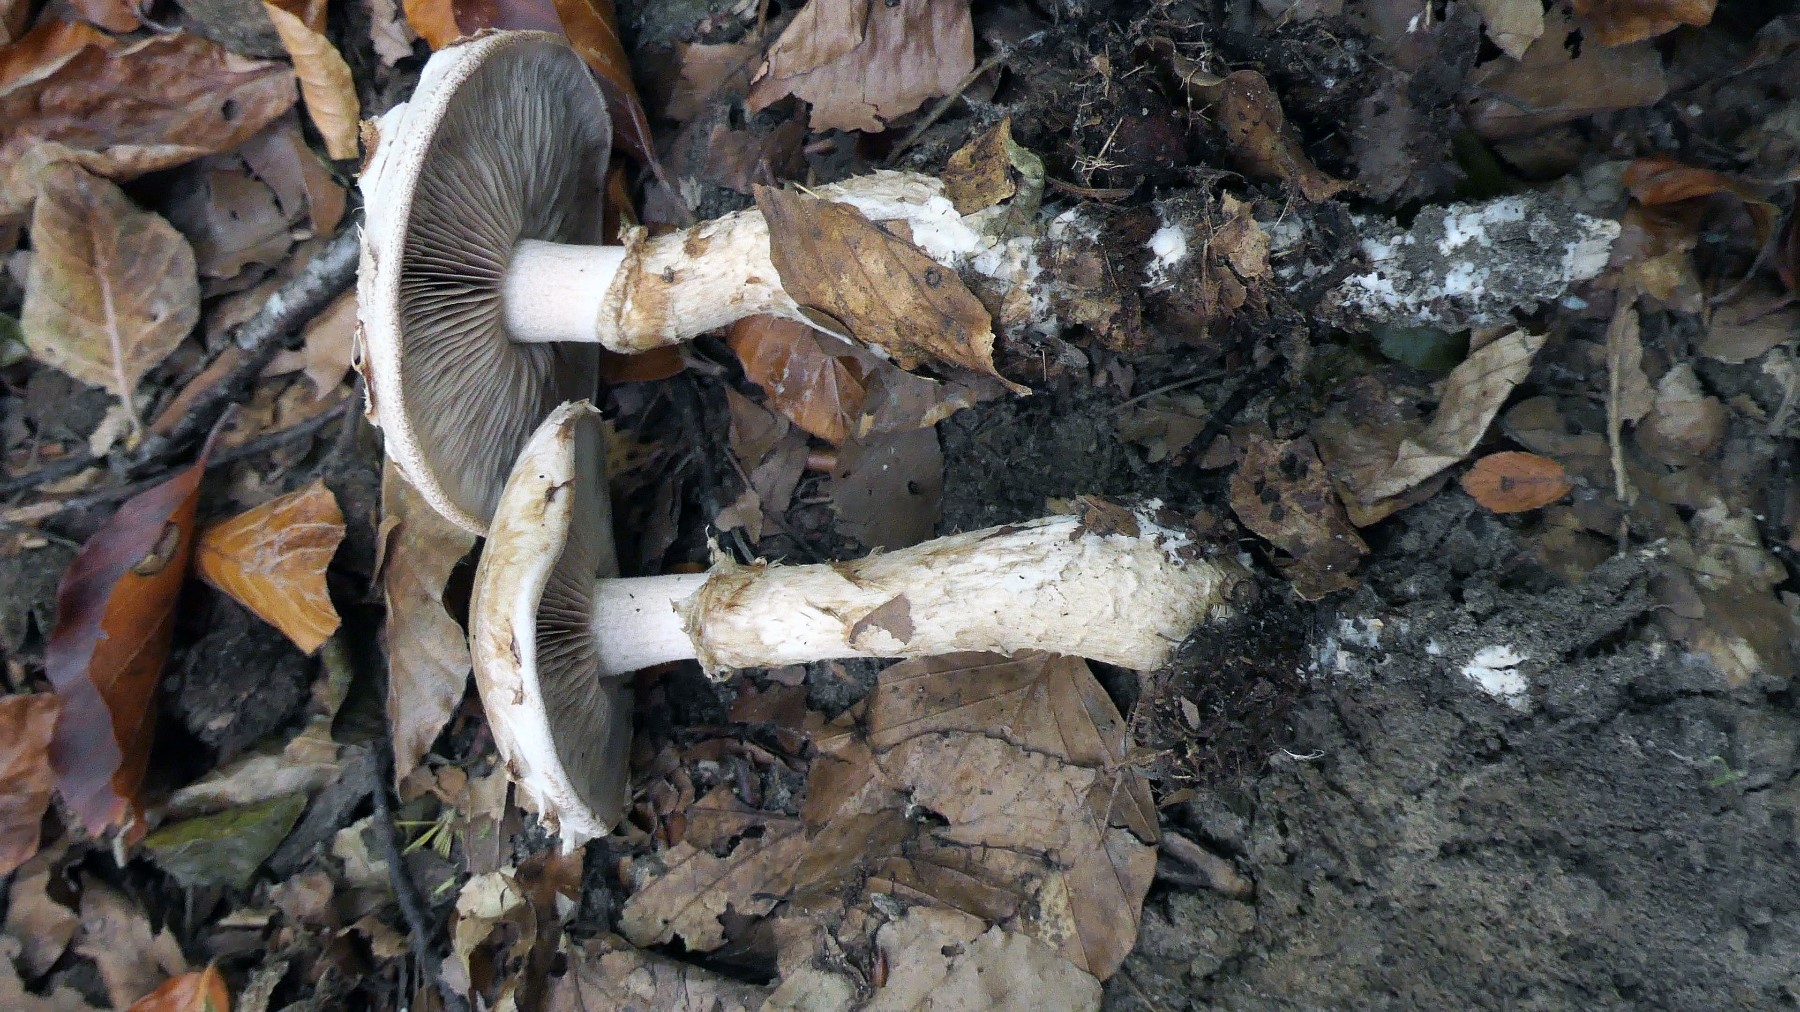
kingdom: Fungi
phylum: Basidiomycota
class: Agaricomycetes
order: Agaricales
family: Hymenogastraceae
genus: Hebeloma
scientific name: Hebeloma radicosum
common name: pælerods-tåreblad
